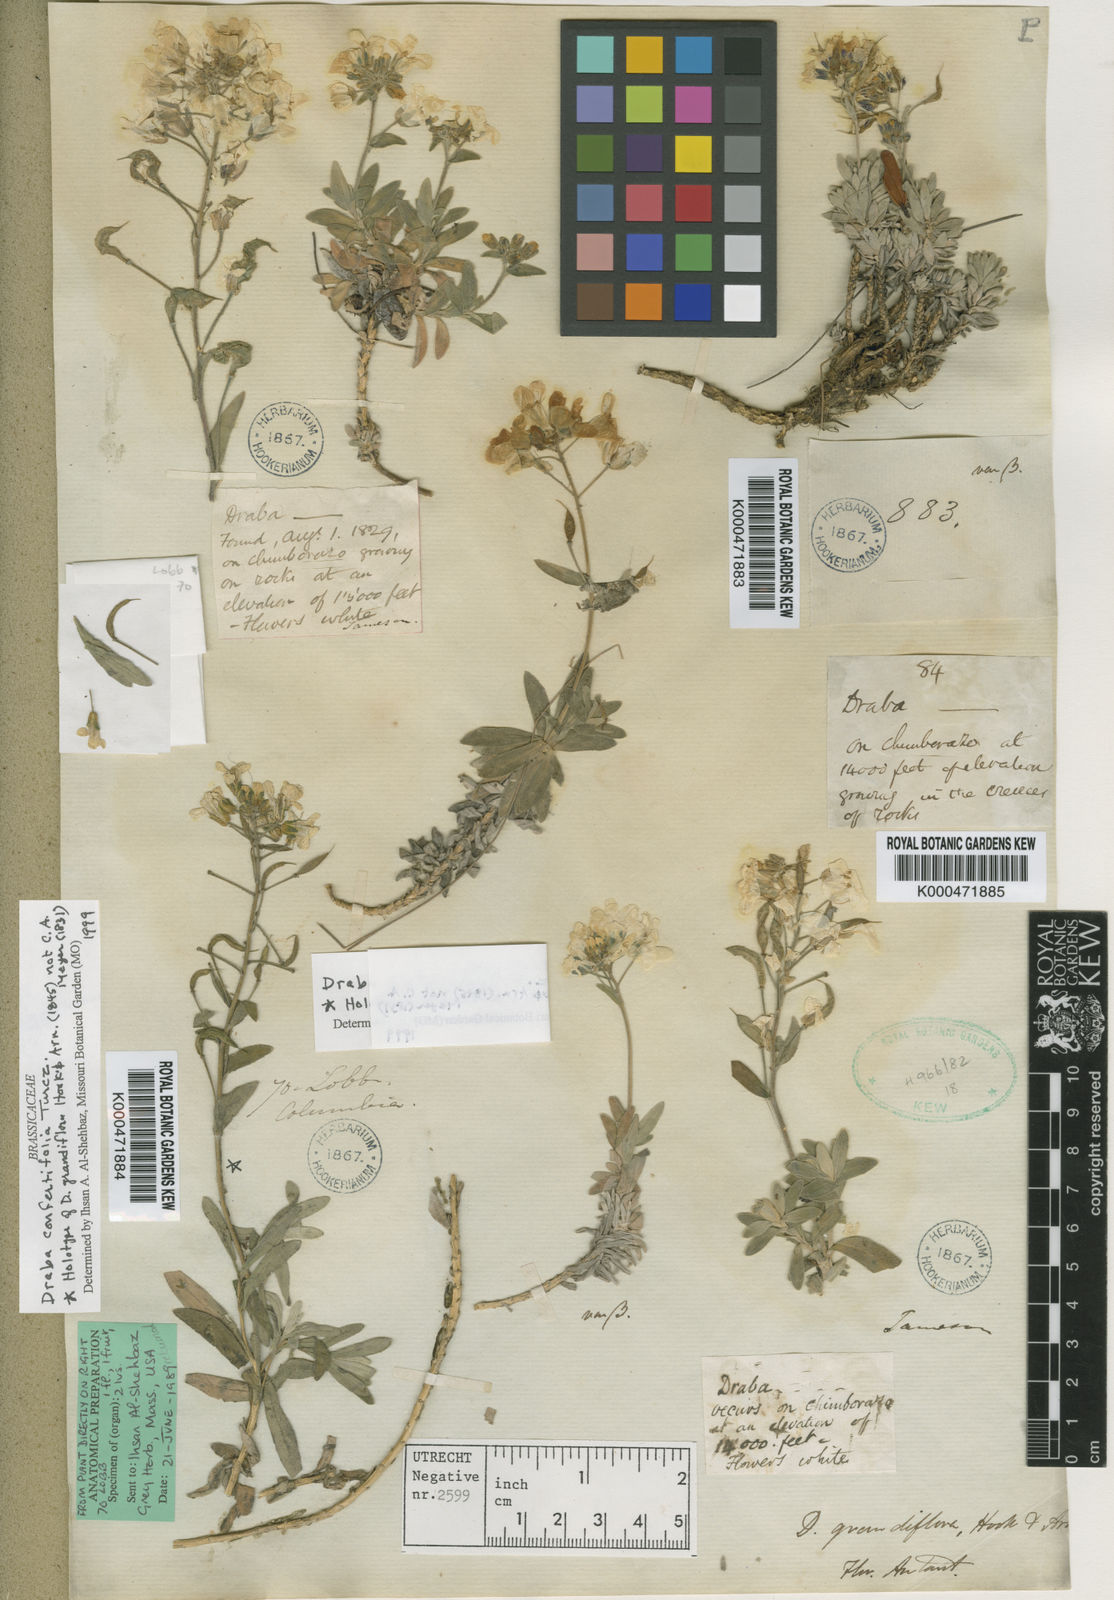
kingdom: Plantae
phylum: Tracheophyta
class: Magnoliopsida
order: Brassicales
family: Brassicaceae
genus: Draba
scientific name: Draba
